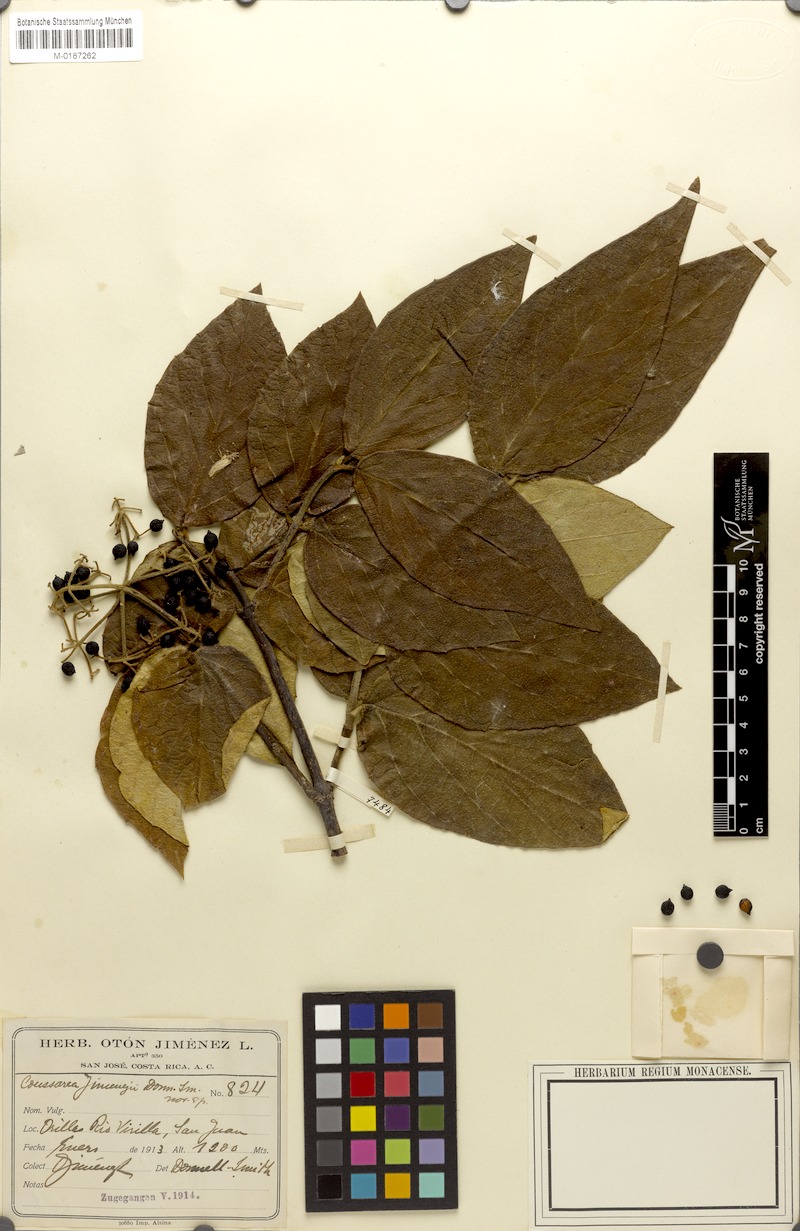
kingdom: Plantae
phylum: Tracheophyta
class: Magnoliopsida
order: Gentianales
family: Rubiaceae
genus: Coussarea
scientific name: Coussarea jiminezii
